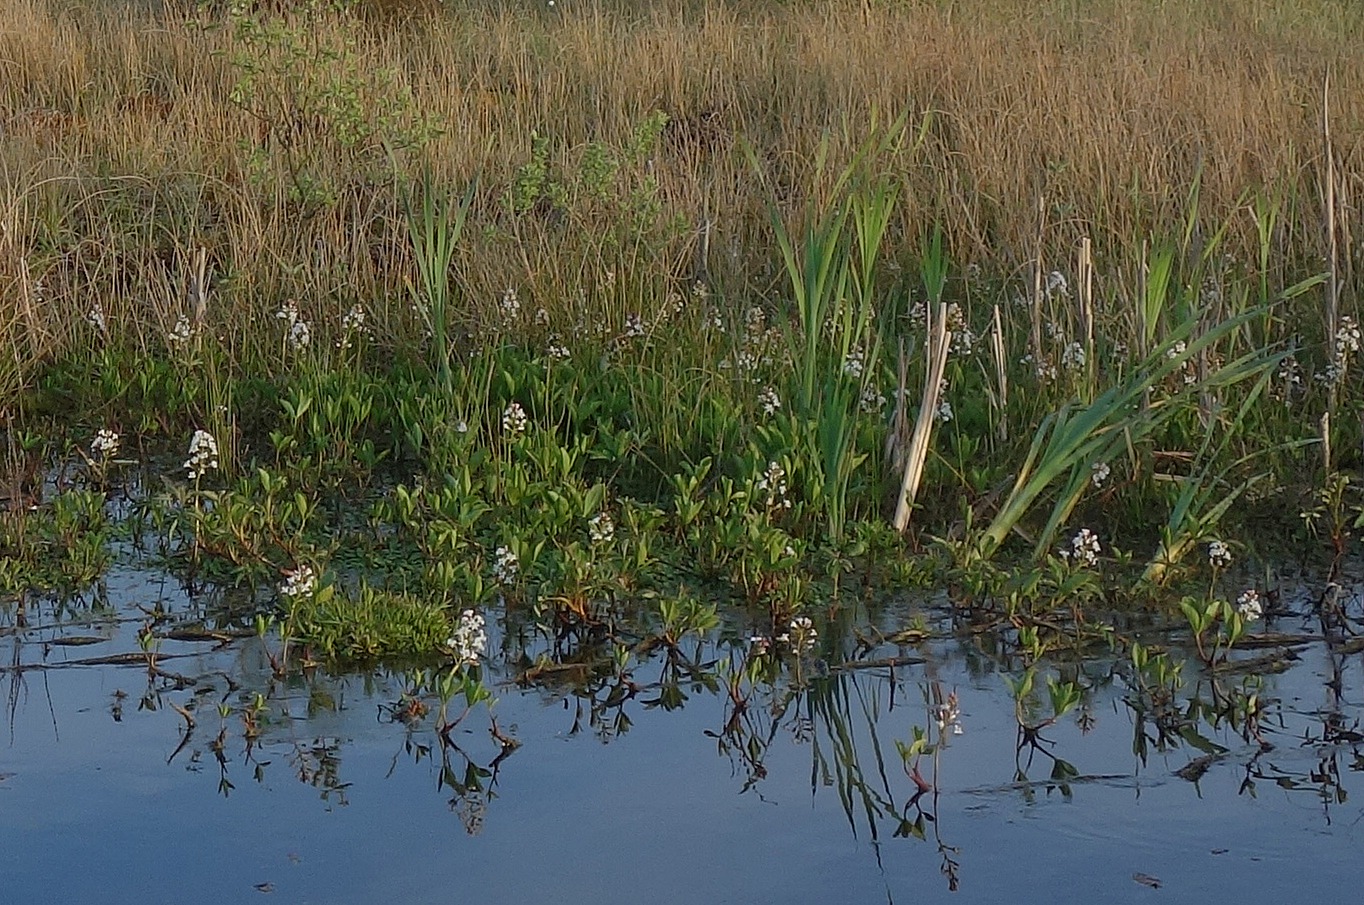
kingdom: Plantae
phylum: Tracheophyta
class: Magnoliopsida
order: Asterales
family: Menyanthaceae
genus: Menyanthes
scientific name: Menyanthes trifoliata
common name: Bukkeblad
